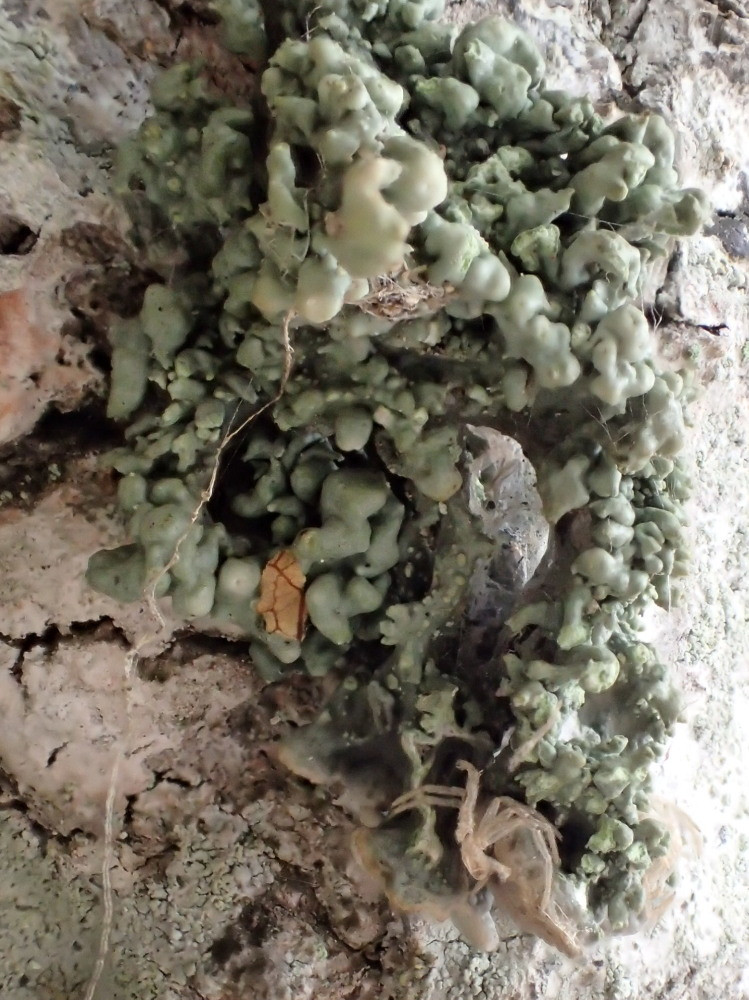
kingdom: Fungi
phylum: Ascomycota
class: Lecanoromycetes
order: Lecanorales
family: Parmeliaceae
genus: Hypogymnia
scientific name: Hypogymnia physodes
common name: almindelig kvistlav
